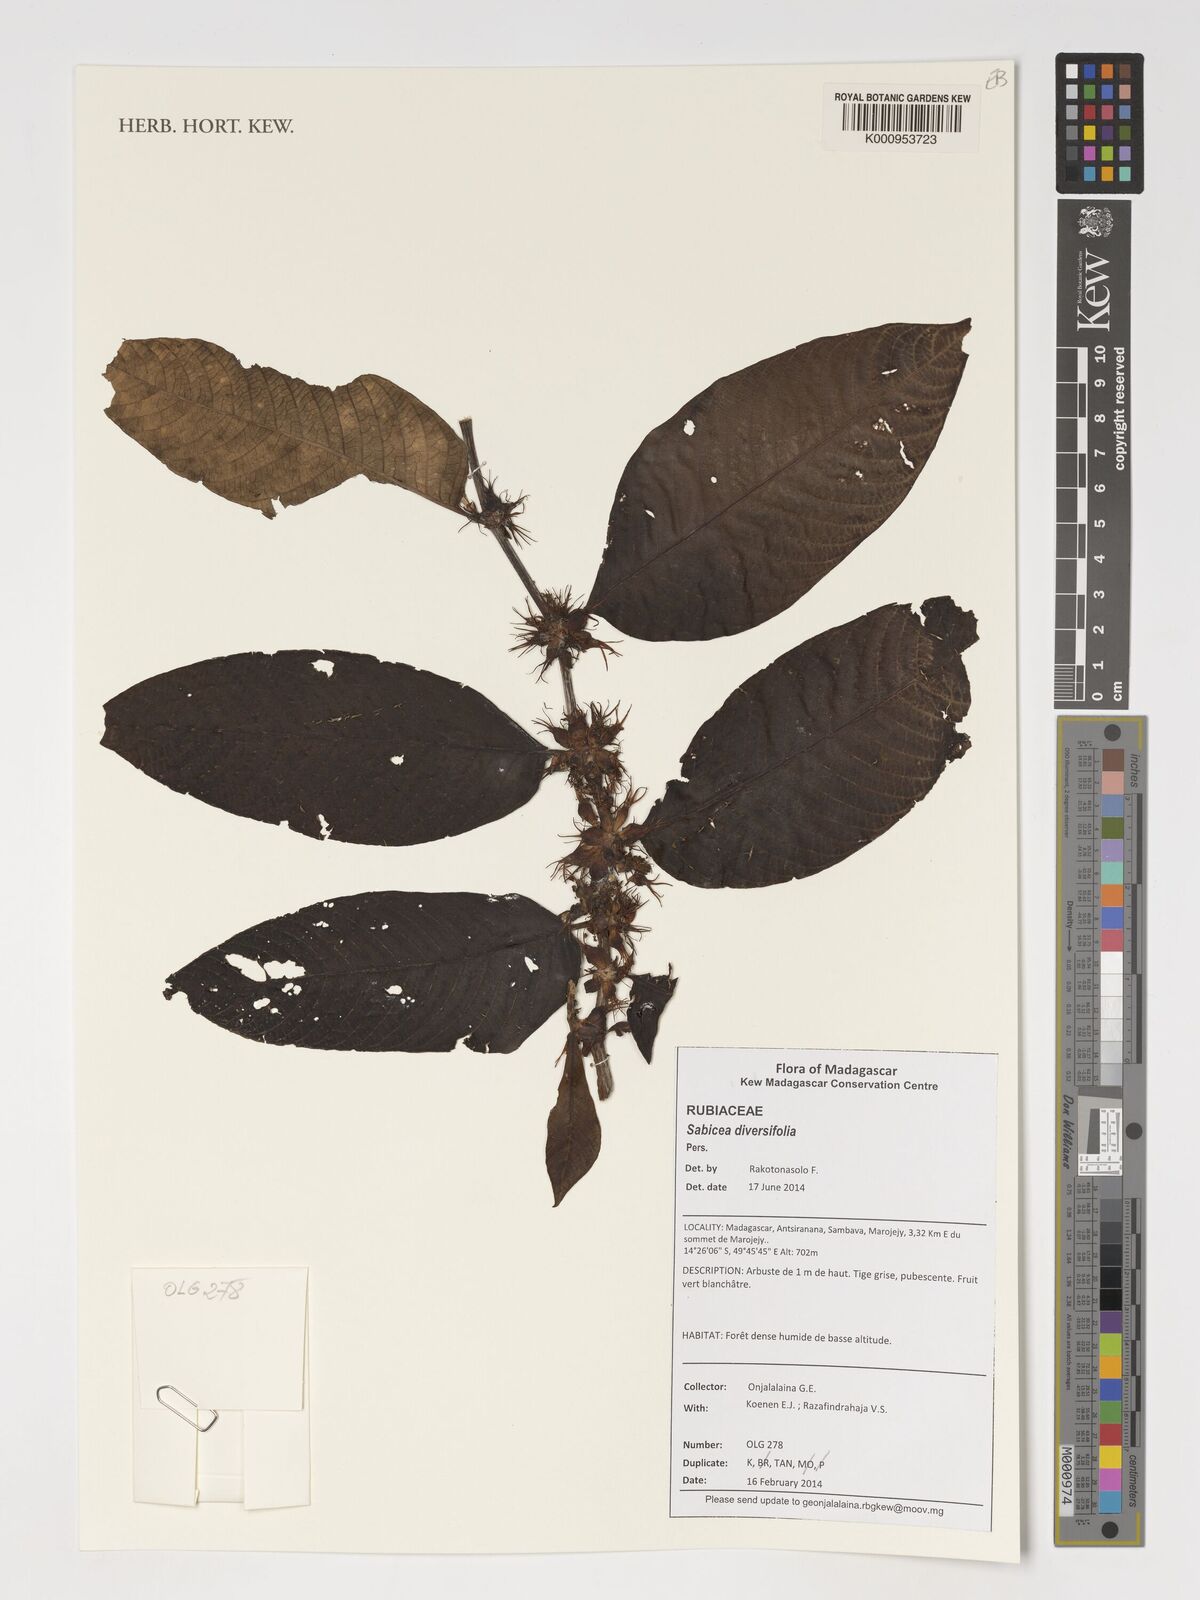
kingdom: Plantae
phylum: Tracheophyta
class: Magnoliopsida
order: Gentianales
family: Rubiaceae
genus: Sabicea
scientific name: Sabicea diversifolia
